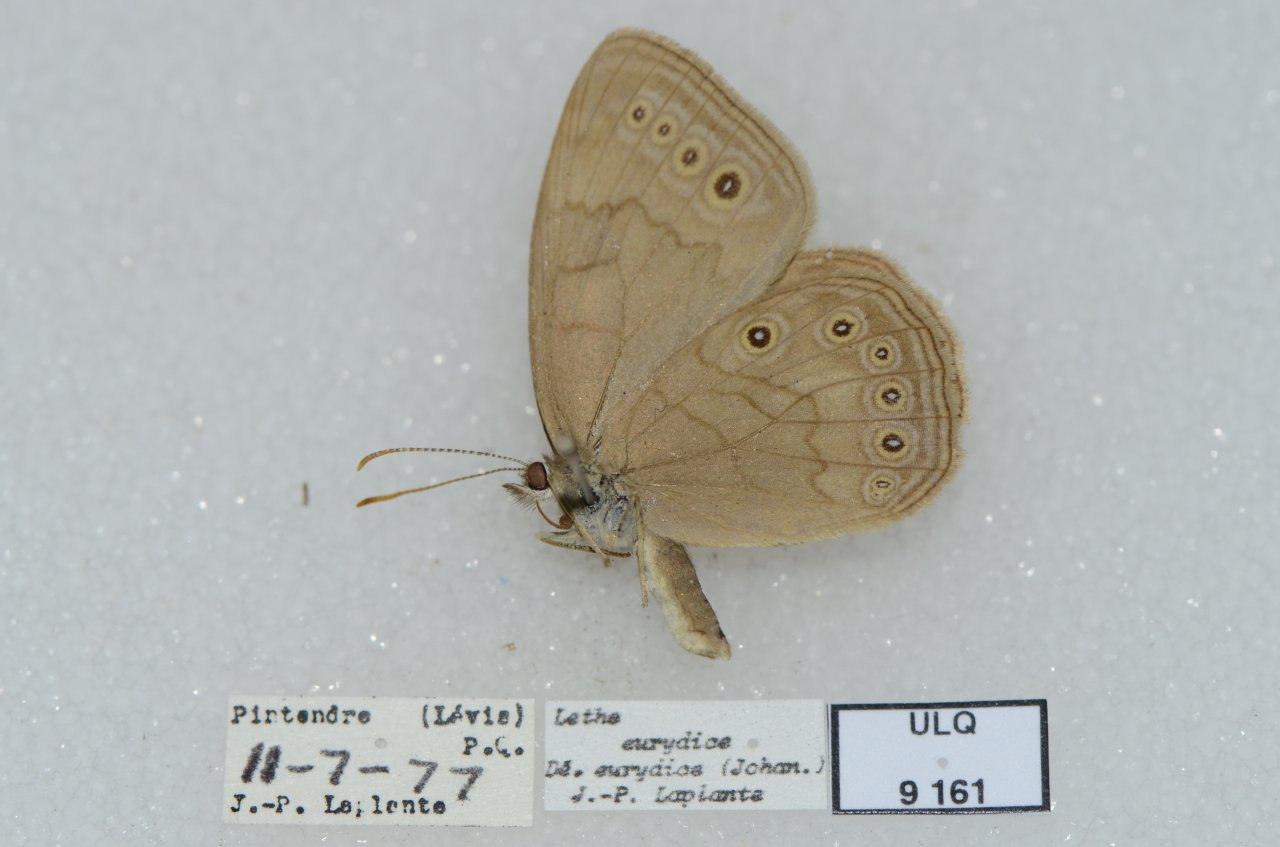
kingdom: Animalia
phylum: Arthropoda
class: Insecta
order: Lepidoptera
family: Nymphalidae
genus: Lethe
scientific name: Lethe eurydice
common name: Eyed Brown
